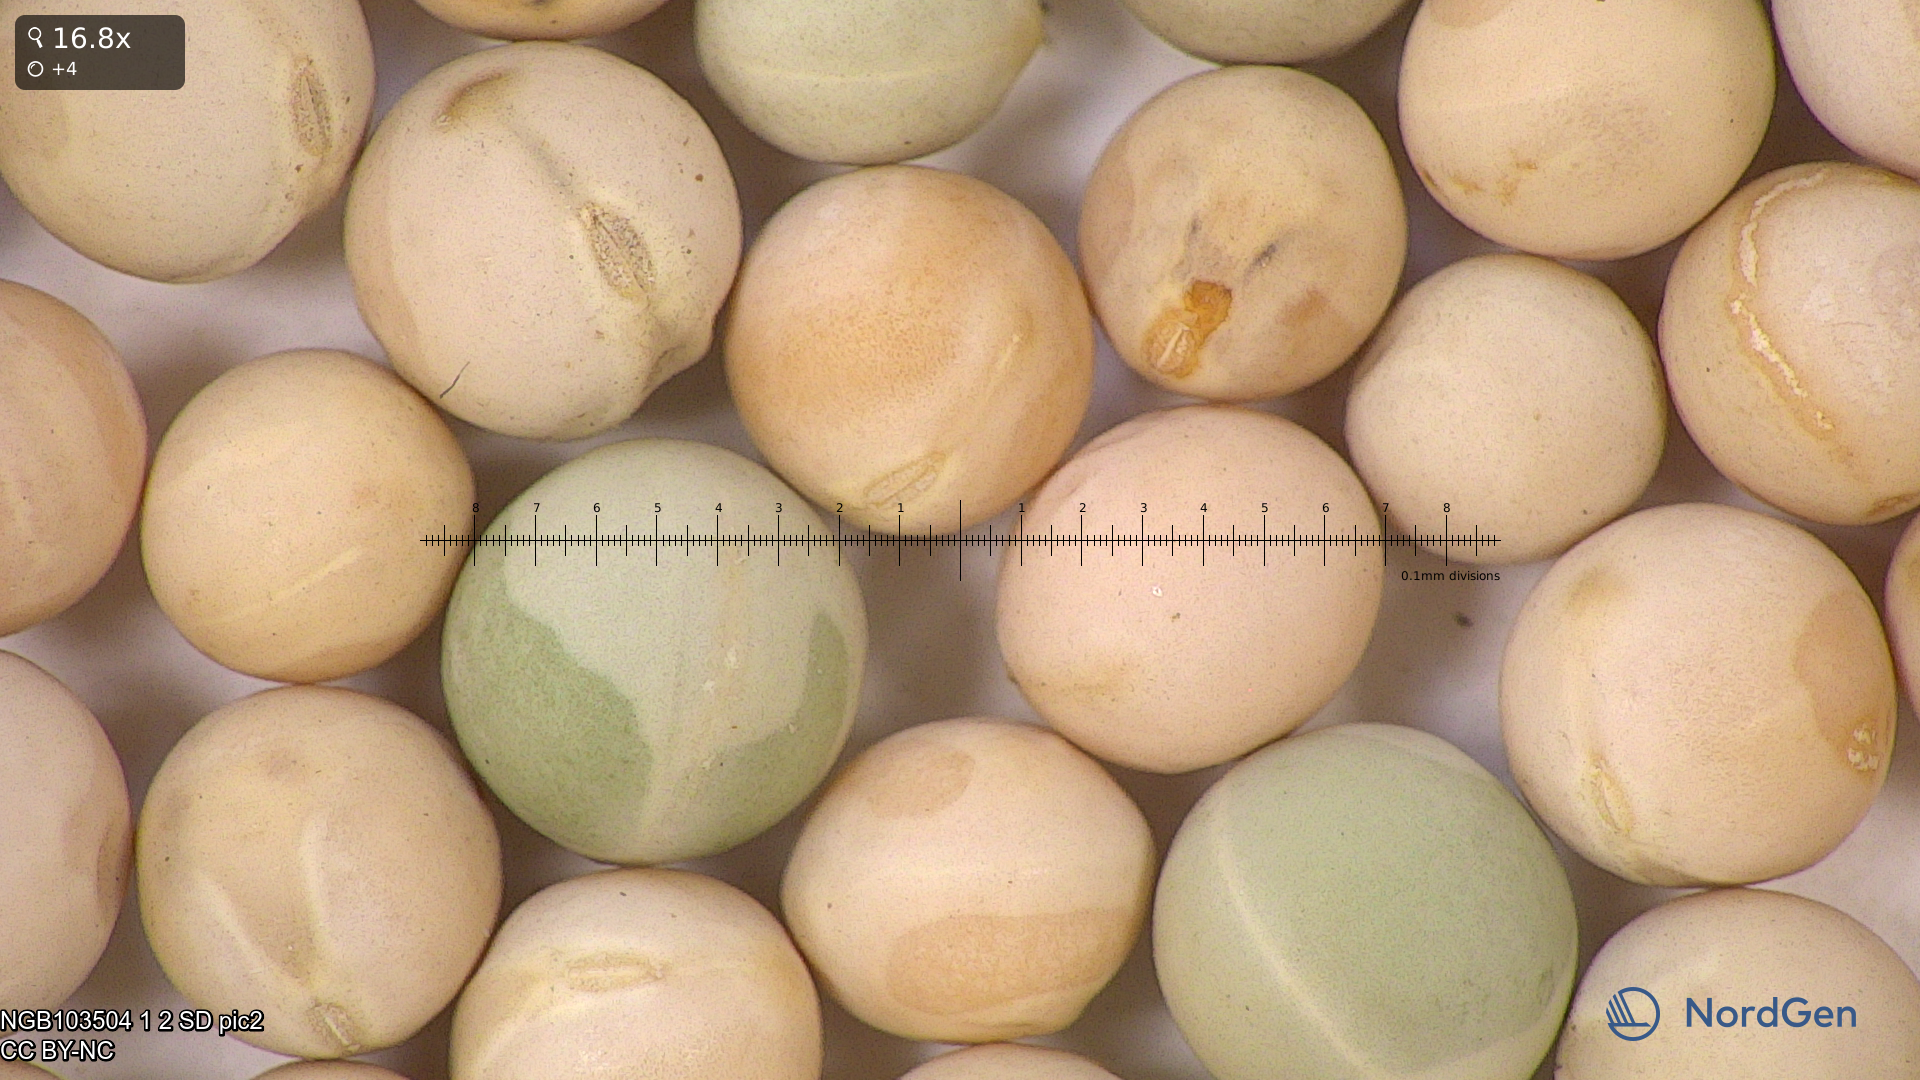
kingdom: Plantae
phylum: Tracheophyta
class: Magnoliopsida
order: Fabales
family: Fabaceae
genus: Lathyrus
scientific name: Lathyrus oleraceus
